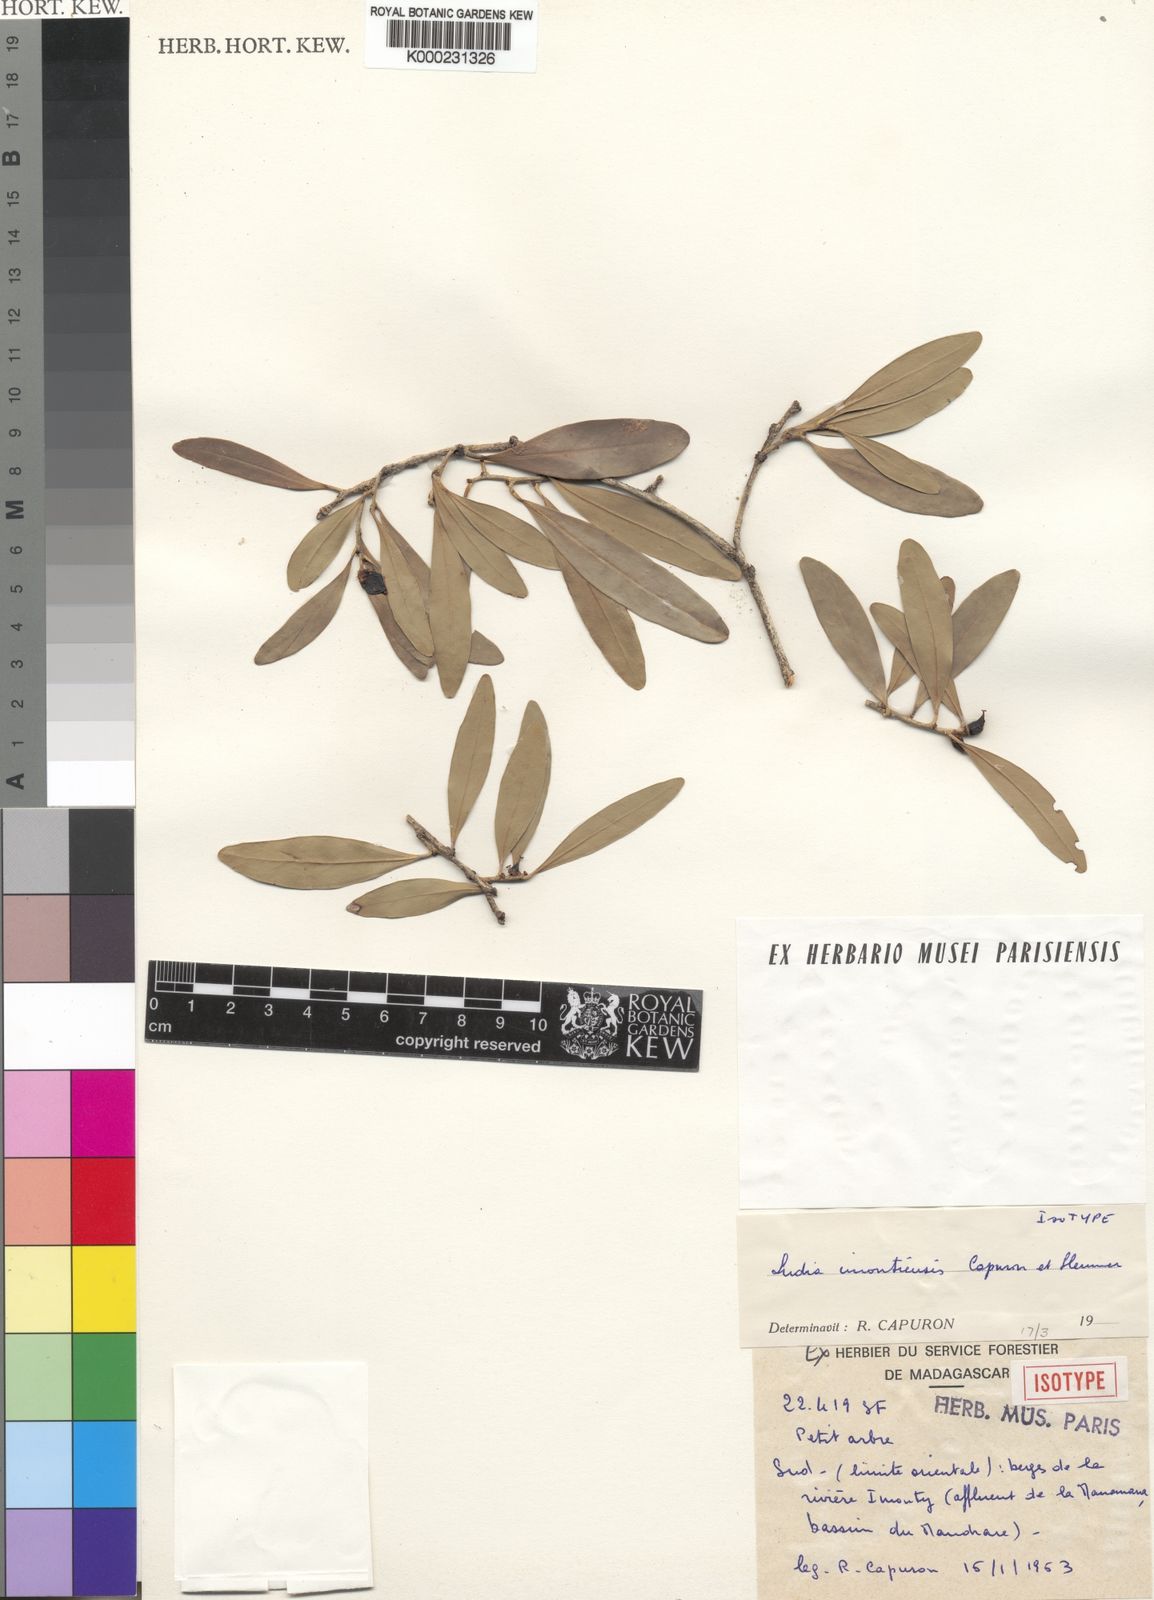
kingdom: Plantae
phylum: Tracheophyta
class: Magnoliopsida
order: Malpighiales
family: Salicaceae
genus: Ludia
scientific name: Ludia imontiensis
